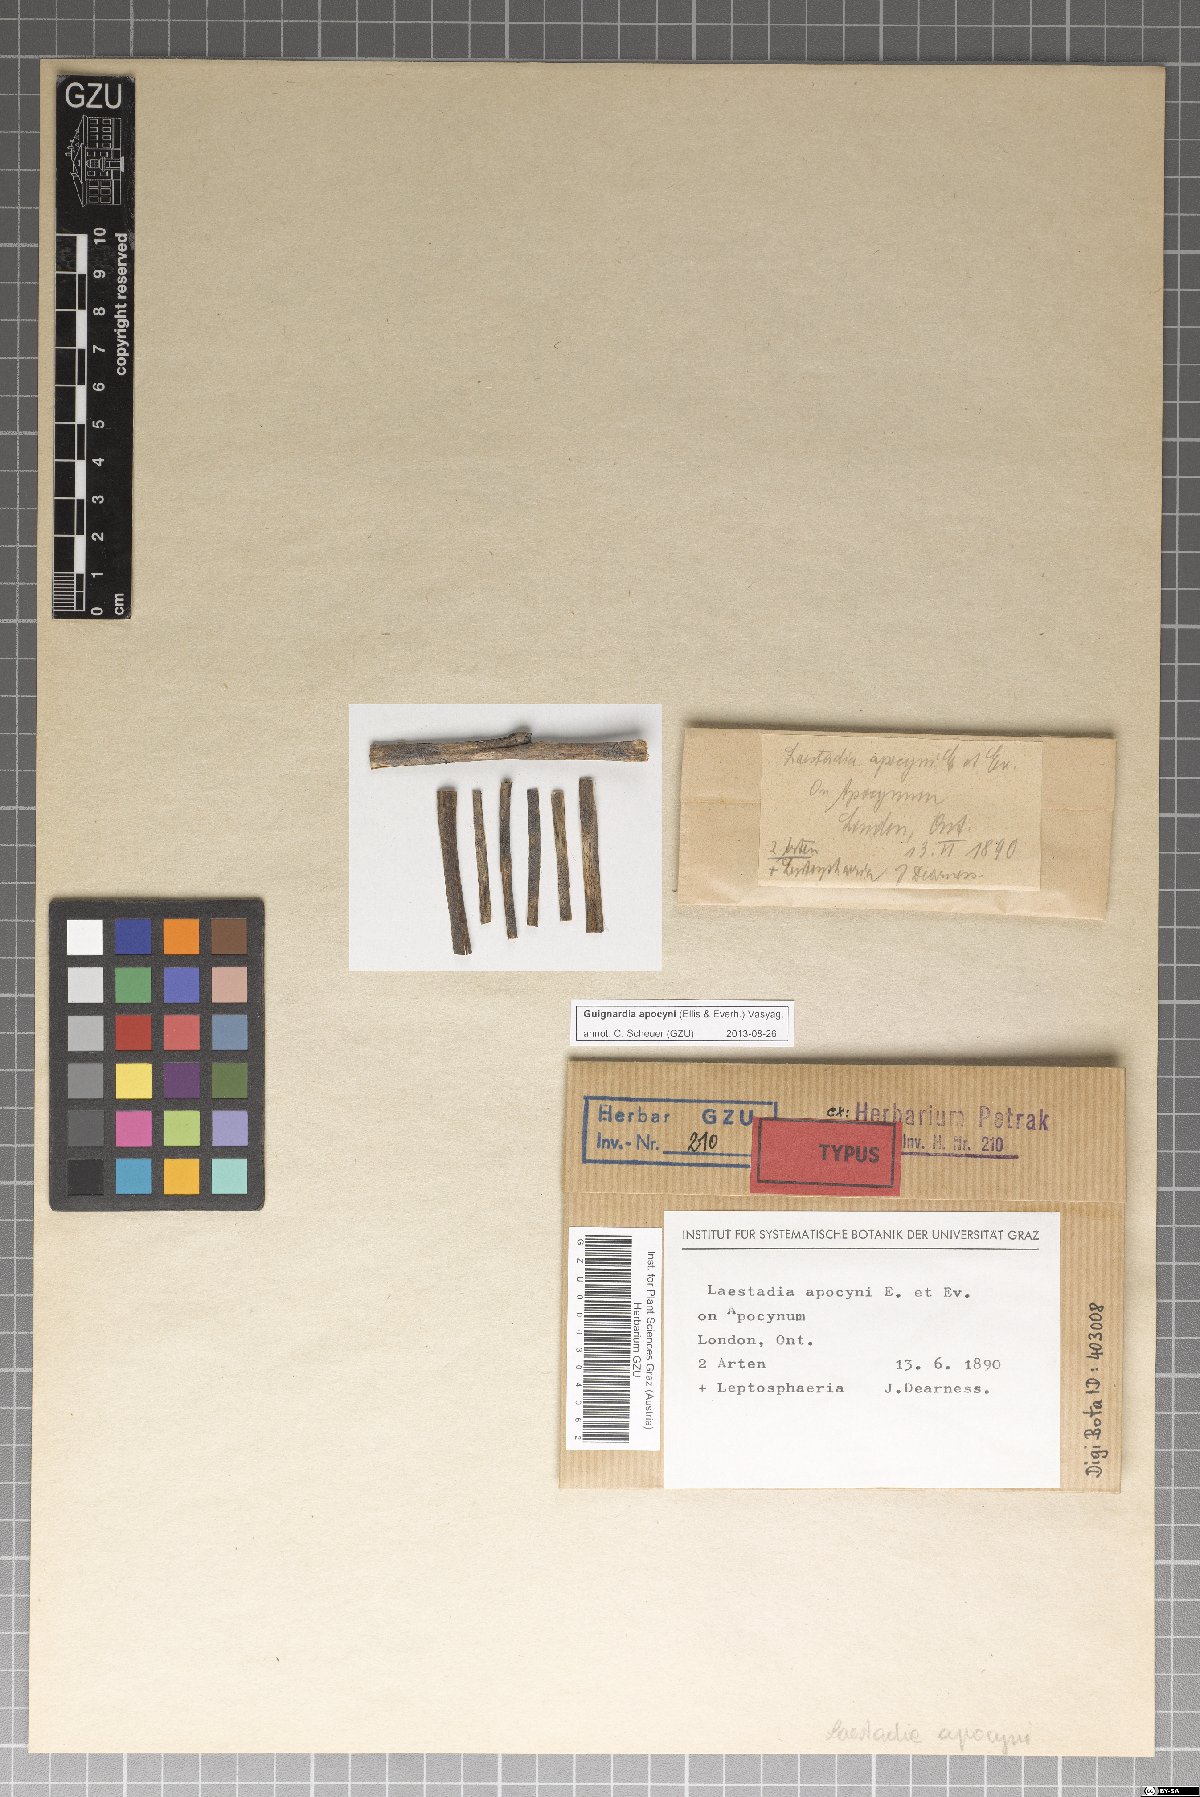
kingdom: Fungi
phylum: Ascomycota
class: Dothideomycetes
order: Botryosphaeriales
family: Phyllostictaceae
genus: Guignardia
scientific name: Guignardia apocyni
